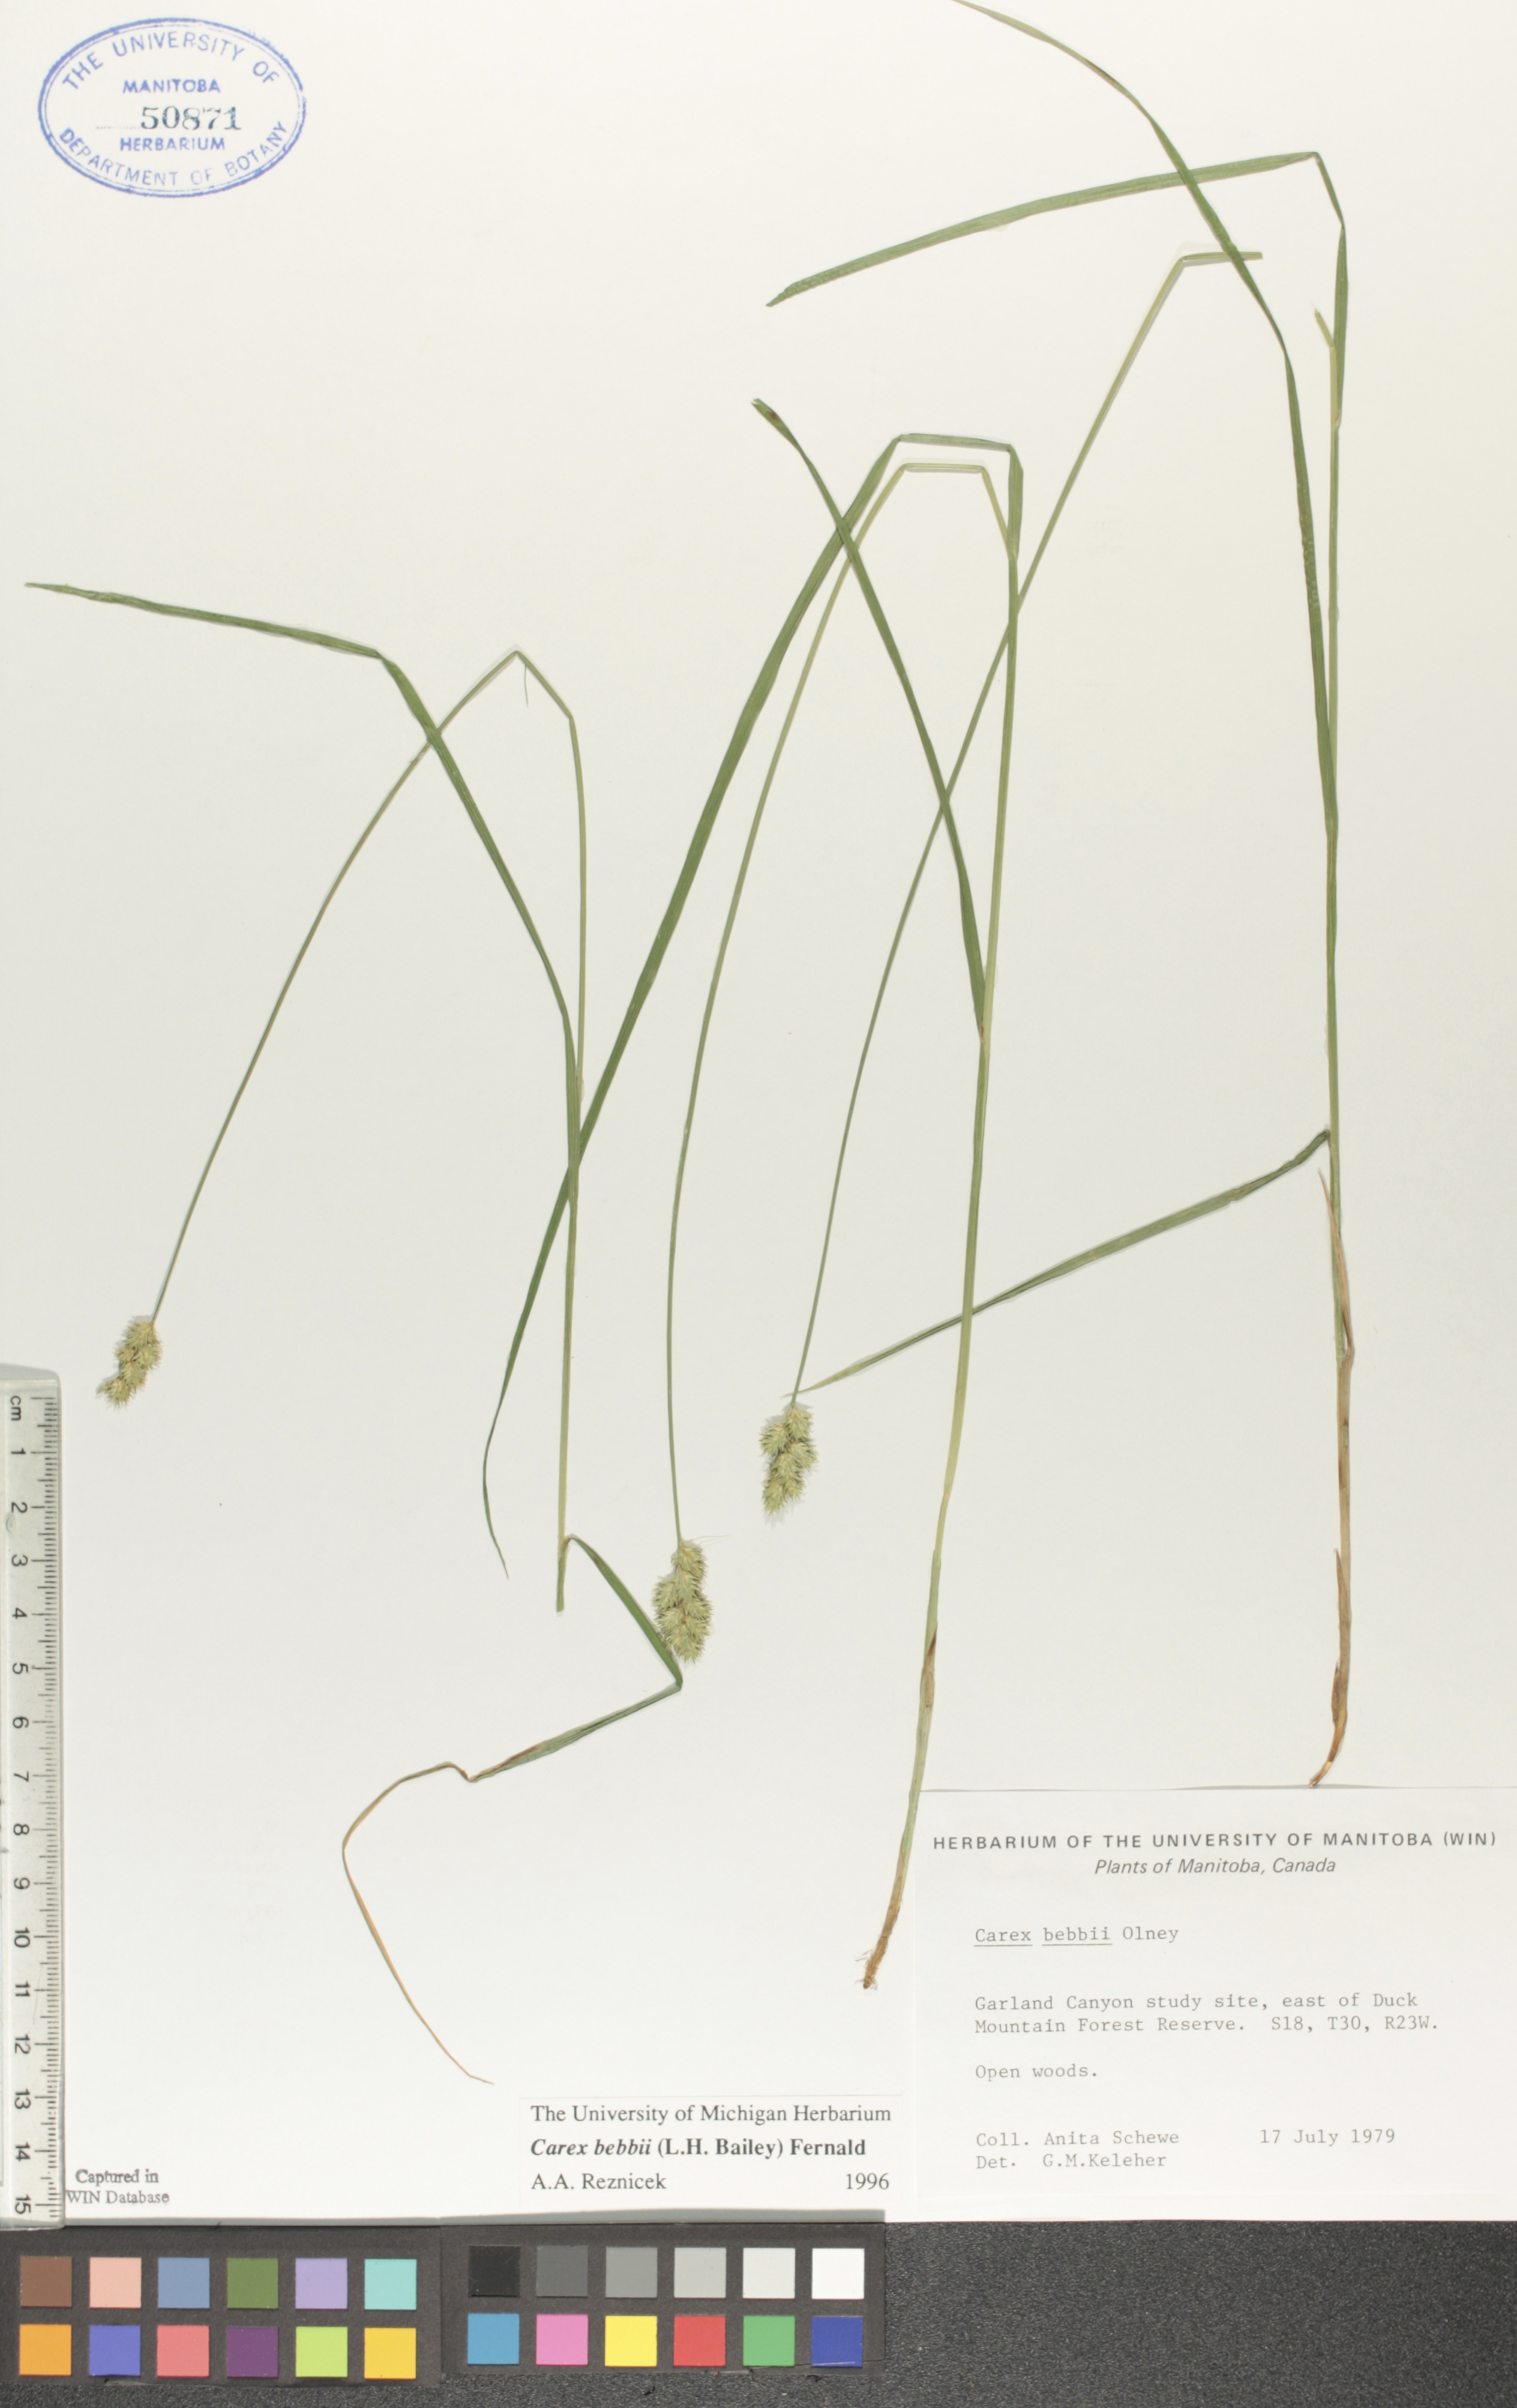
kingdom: Plantae
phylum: Tracheophyta
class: Liliopsida
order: Poales
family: Cyperaceae
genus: Carex
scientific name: Carex bebbii
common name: Bebb's sedge
